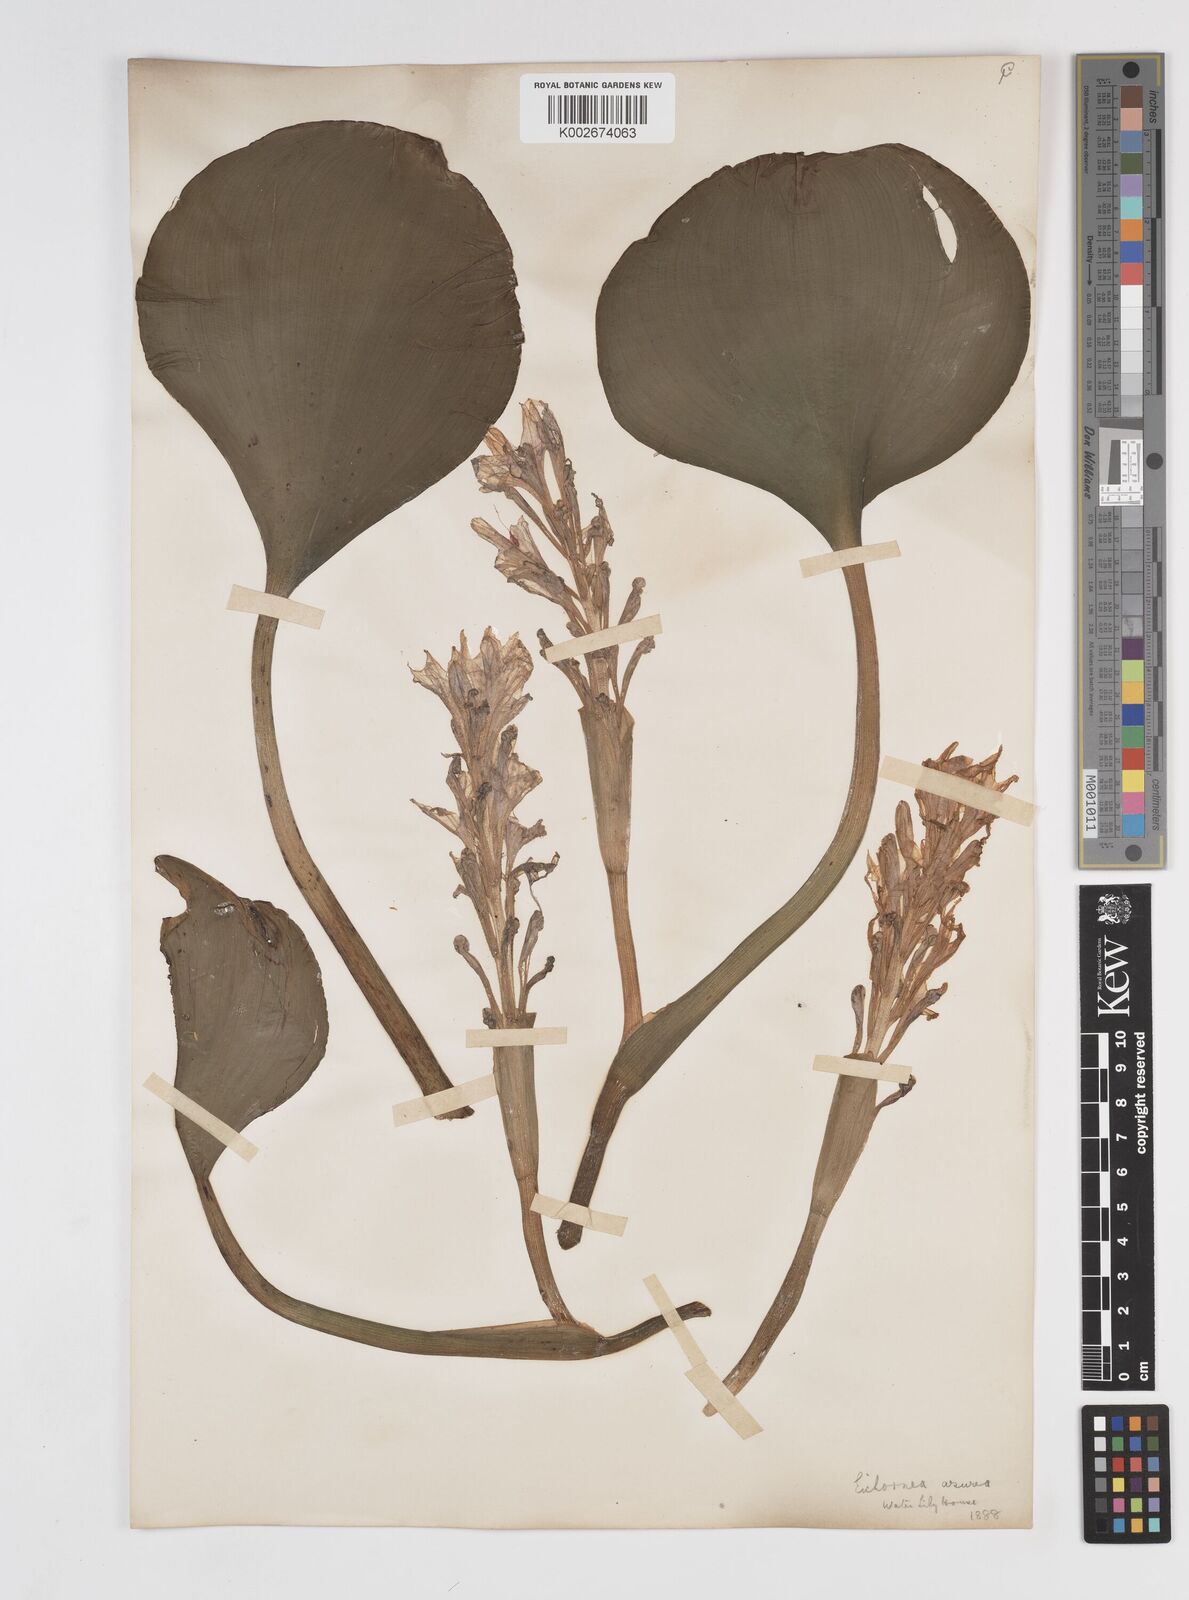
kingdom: Plantae
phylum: Tracheophyta
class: Liliopsida
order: Commelinales
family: Pontederiaceae
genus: Pontederia
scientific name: Pontederia azurea
